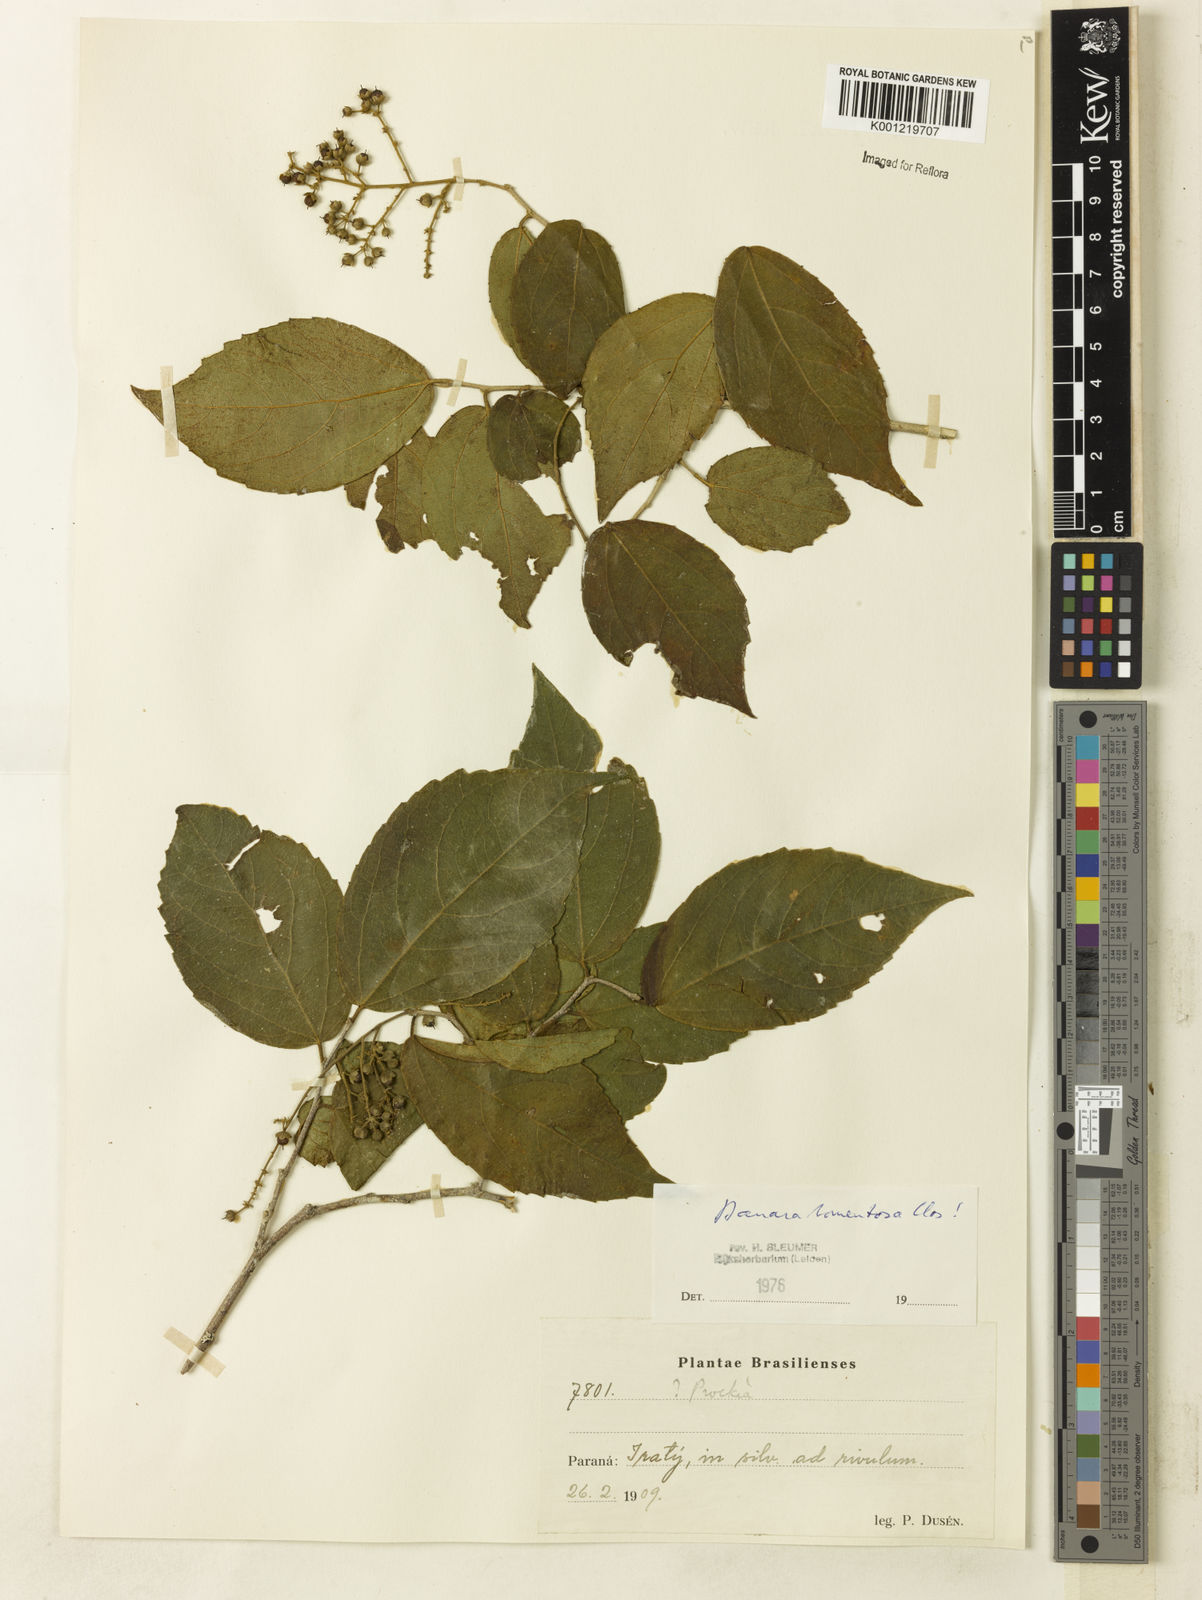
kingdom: Plantae
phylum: Tracheophyta
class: Magnoliopsida
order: Malpighiales
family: Salicaceae
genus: Banara
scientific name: Banara tomentosa
